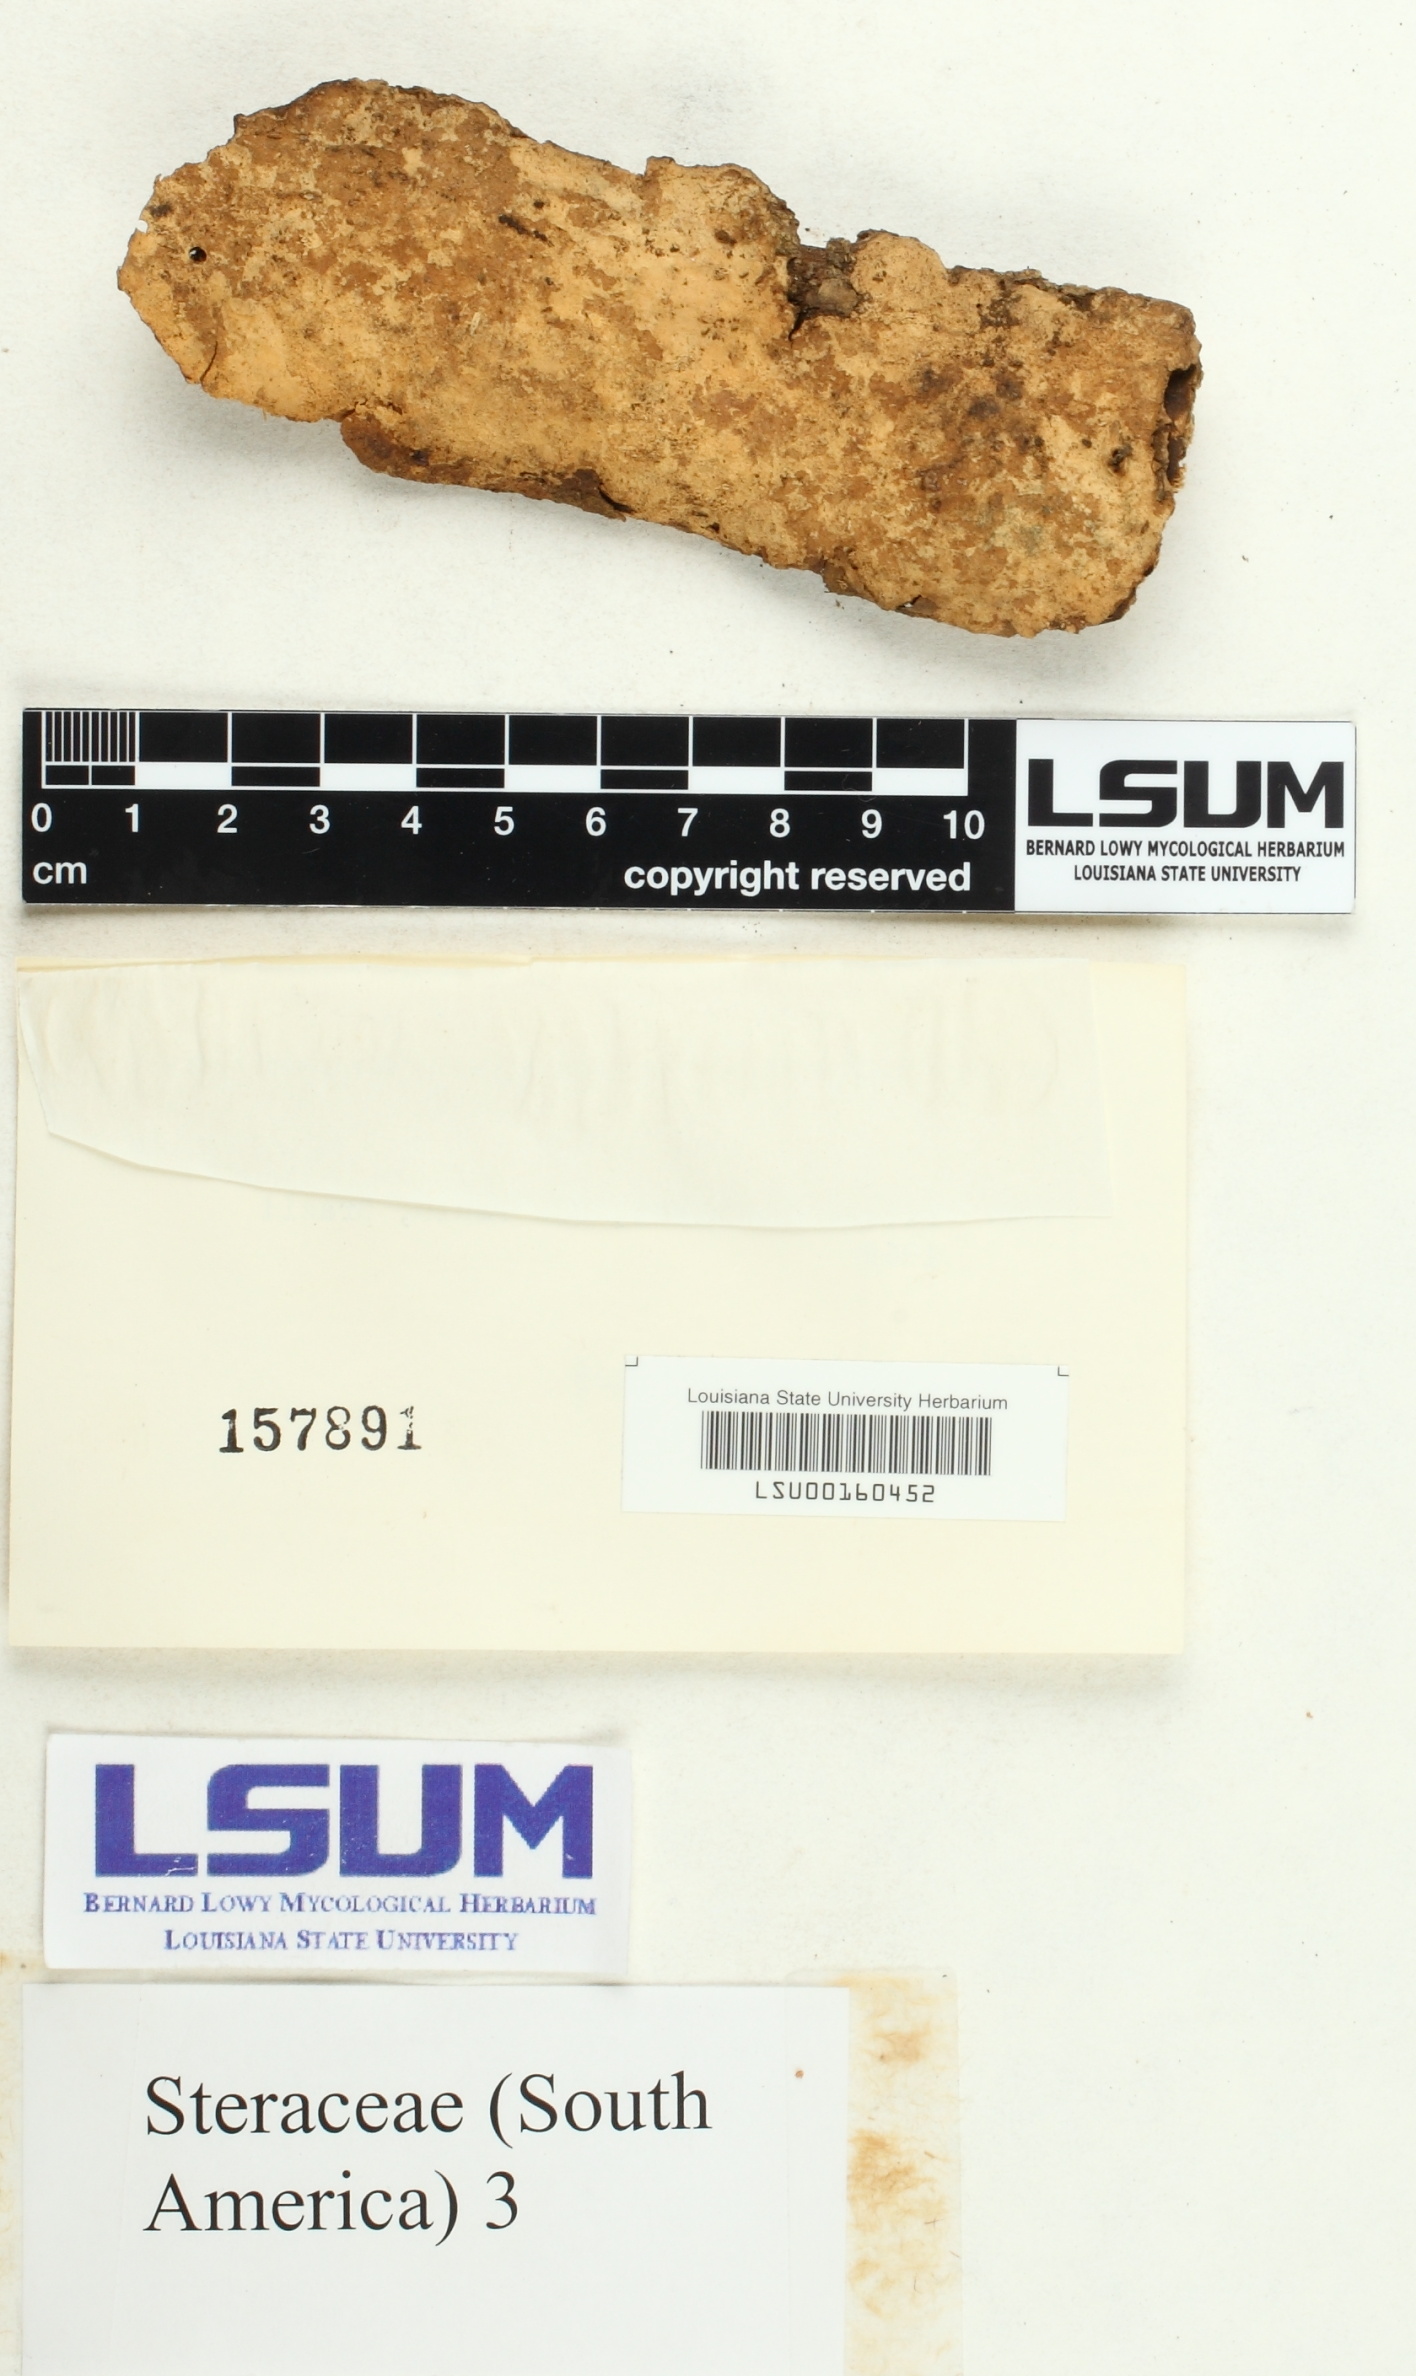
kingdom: Fungi
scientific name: Fungi
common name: Fungi
